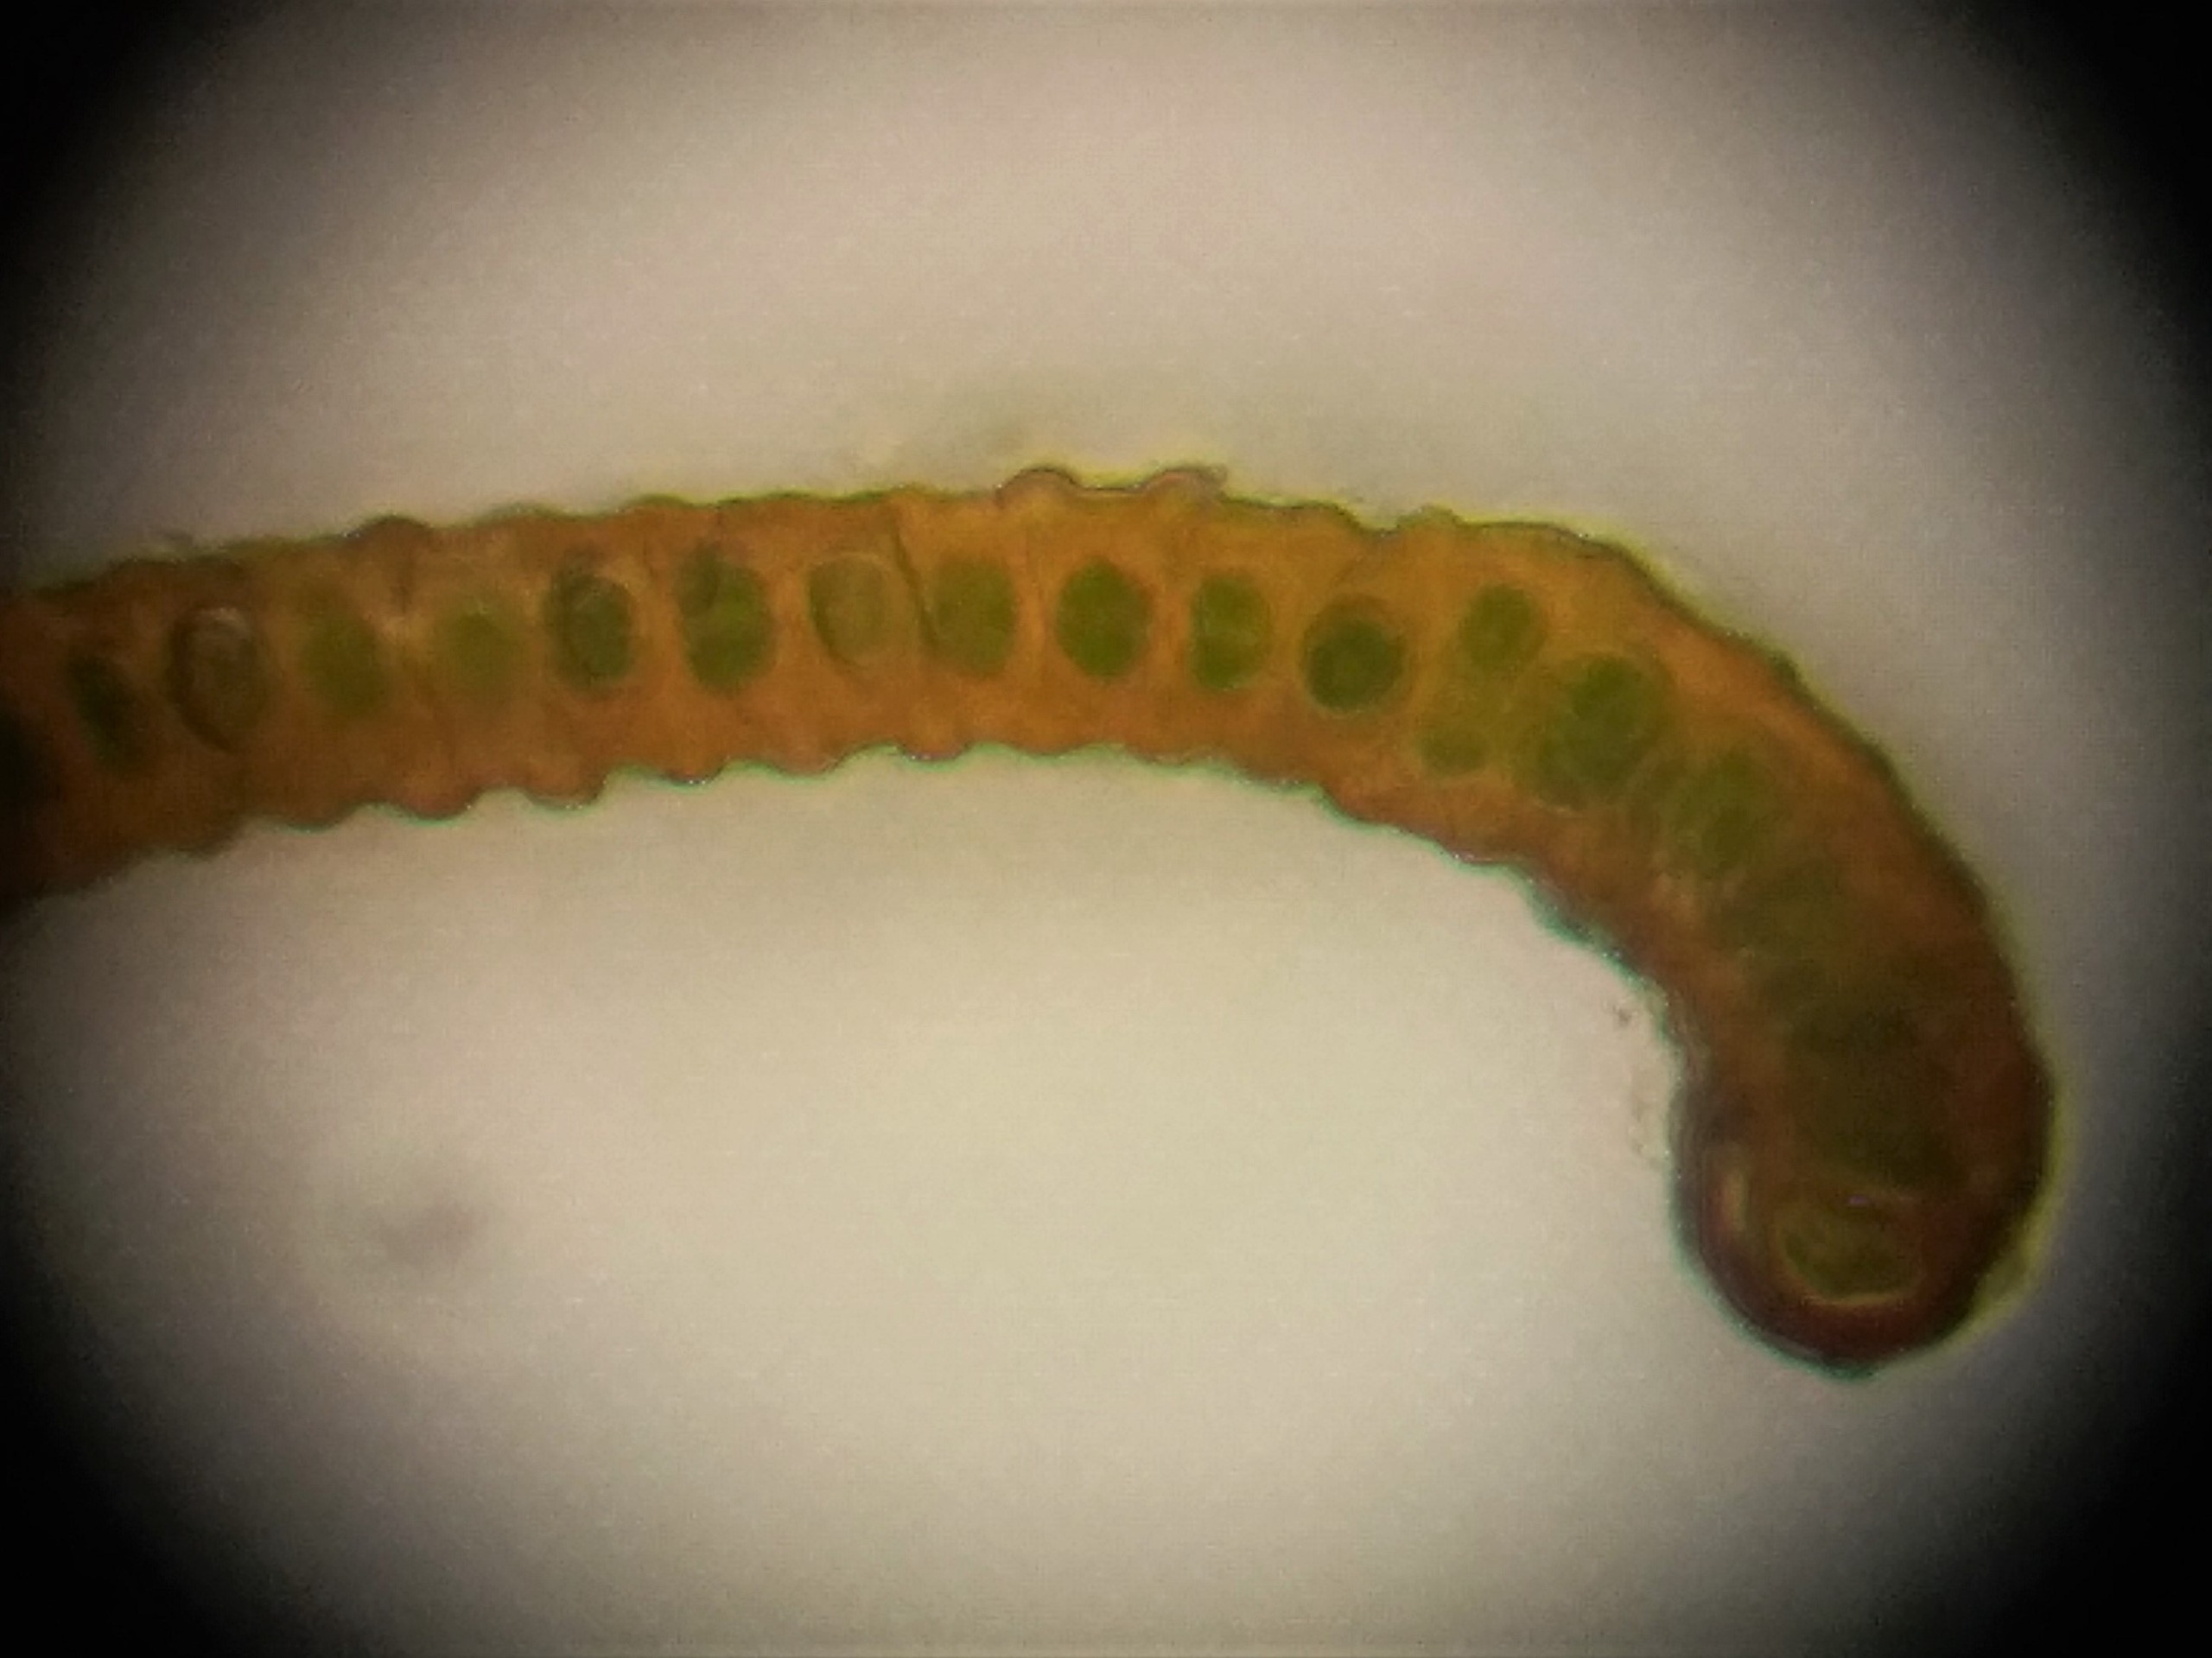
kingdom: Plantae
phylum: Bryophyta
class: Bryopsida
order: Grimmiales
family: Grimmiaceae
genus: Bucklandiella
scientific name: Bucklandiella obtusa
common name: Kyst-børstemos
